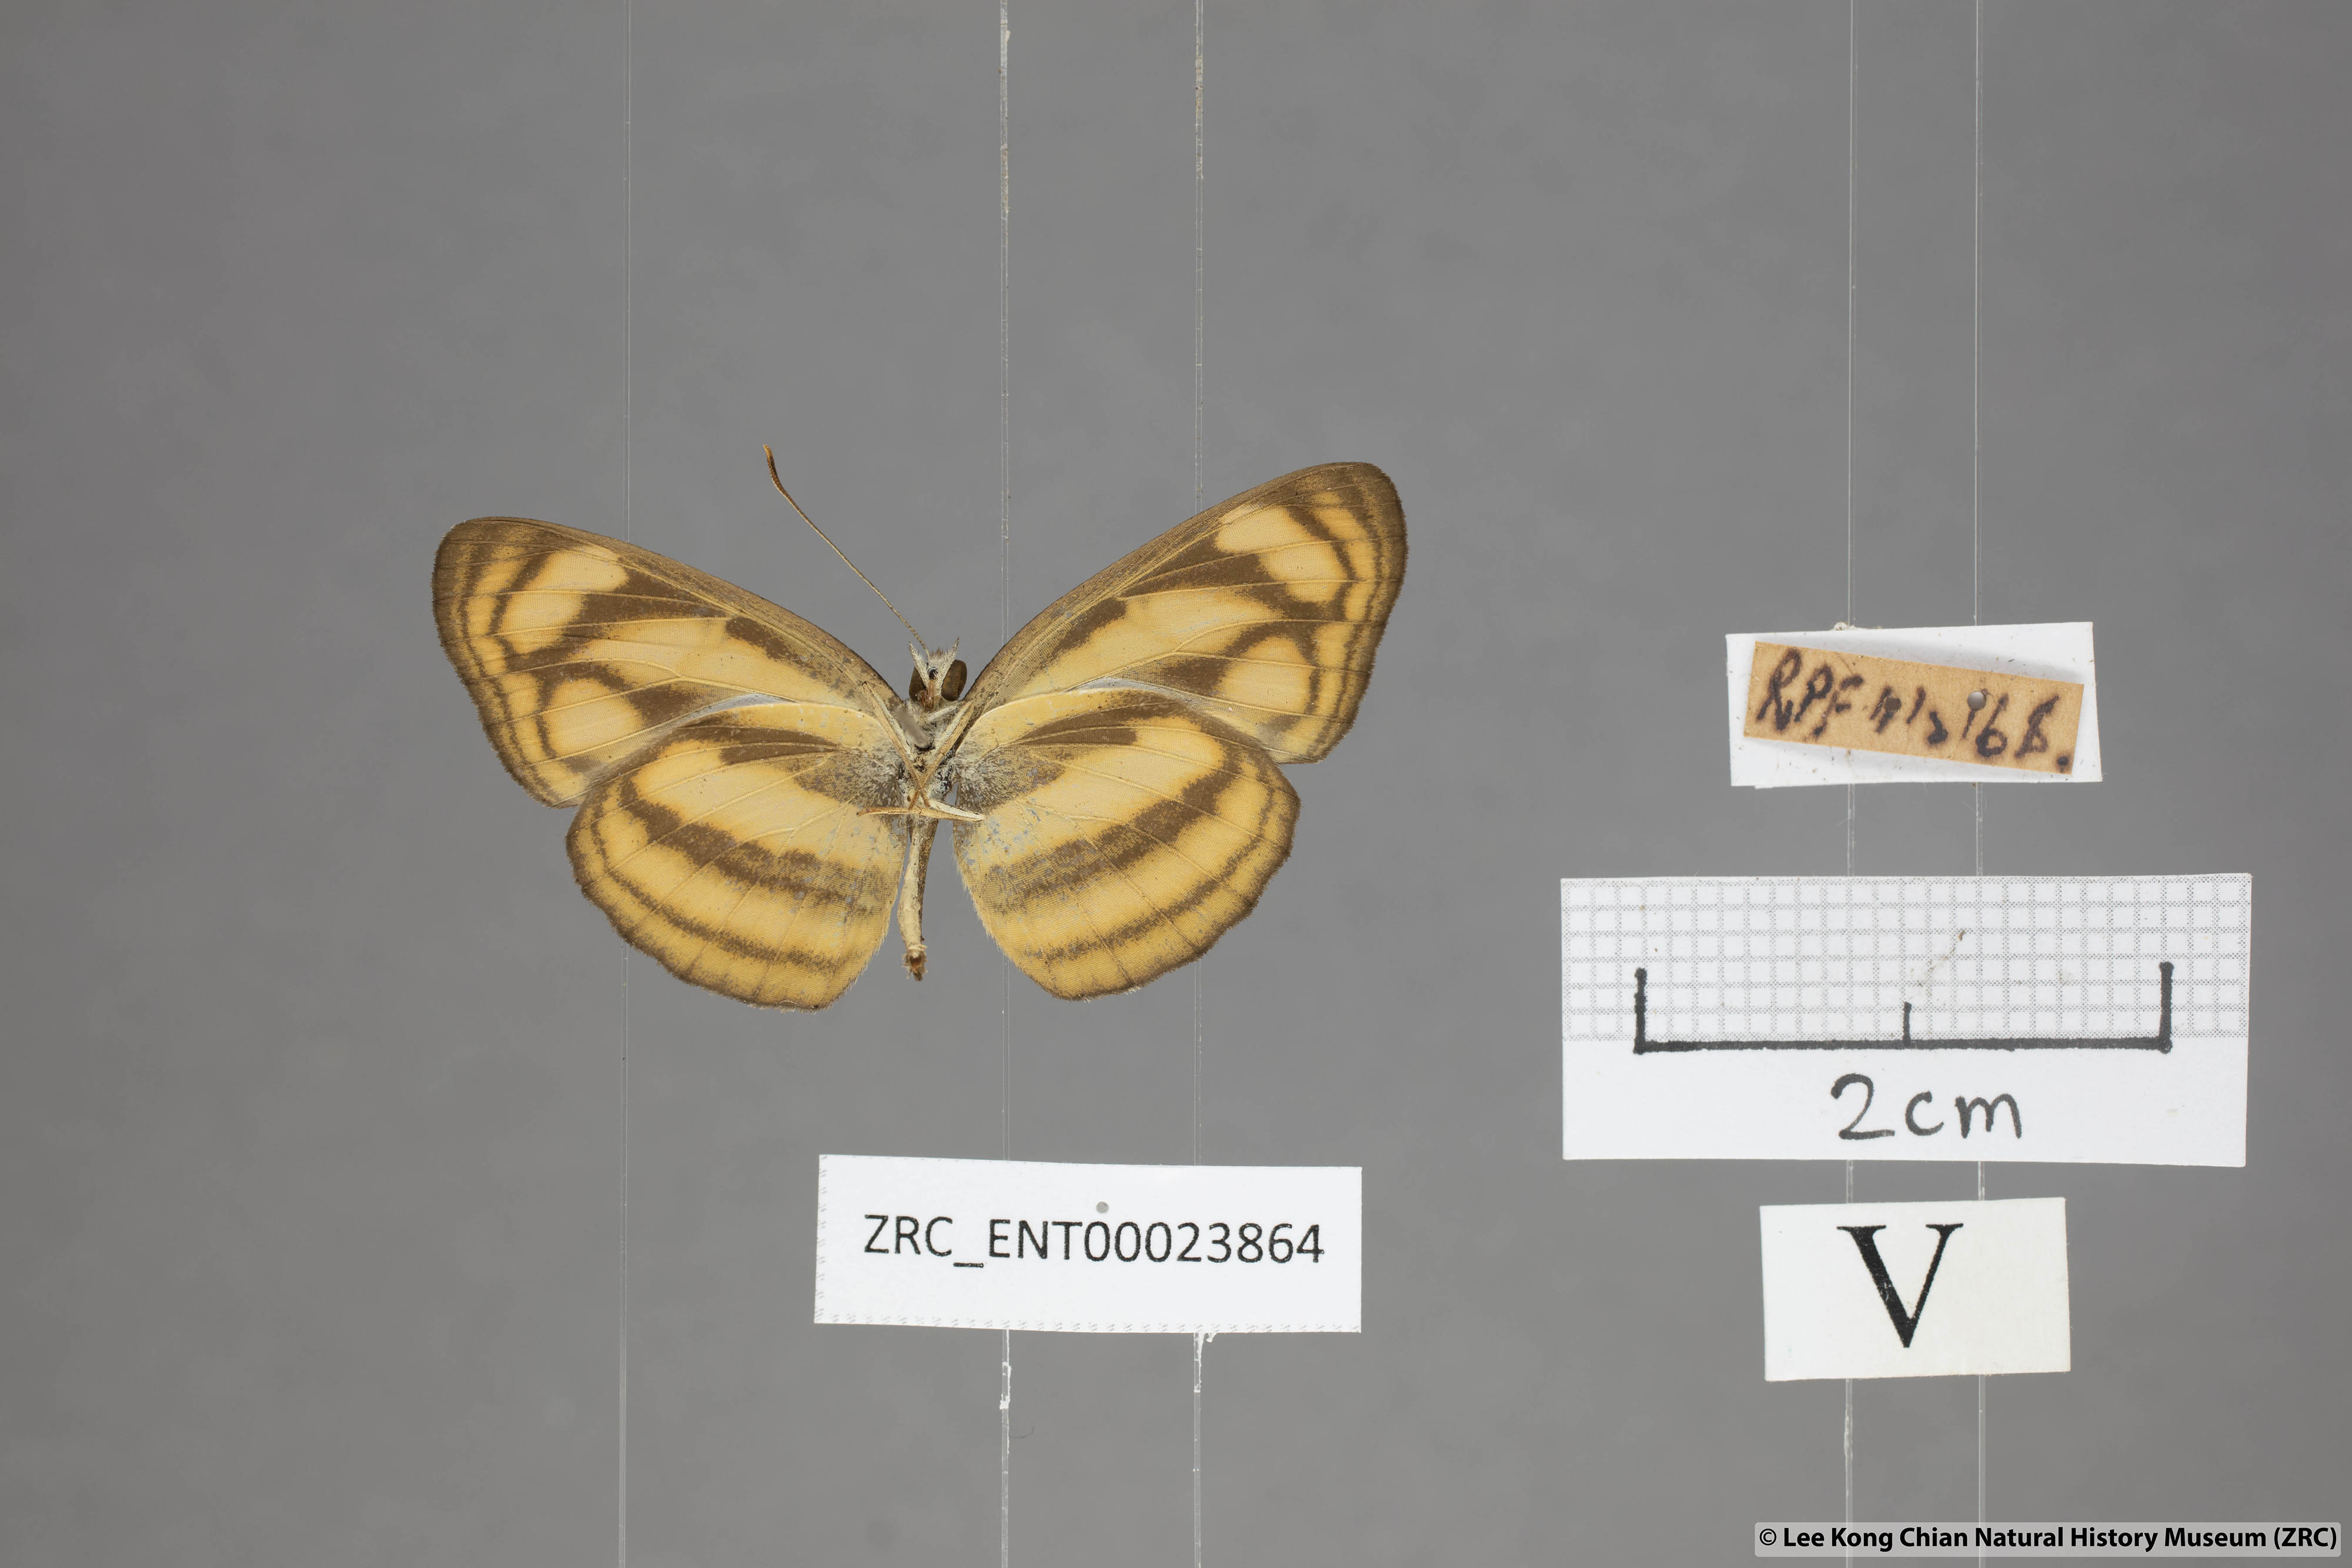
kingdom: Animalia
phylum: Arthropoda
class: Insecta
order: Lepidoptera
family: Nymphalidae
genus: Lasippa
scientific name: Lasippa tiga
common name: Malayan lascar
